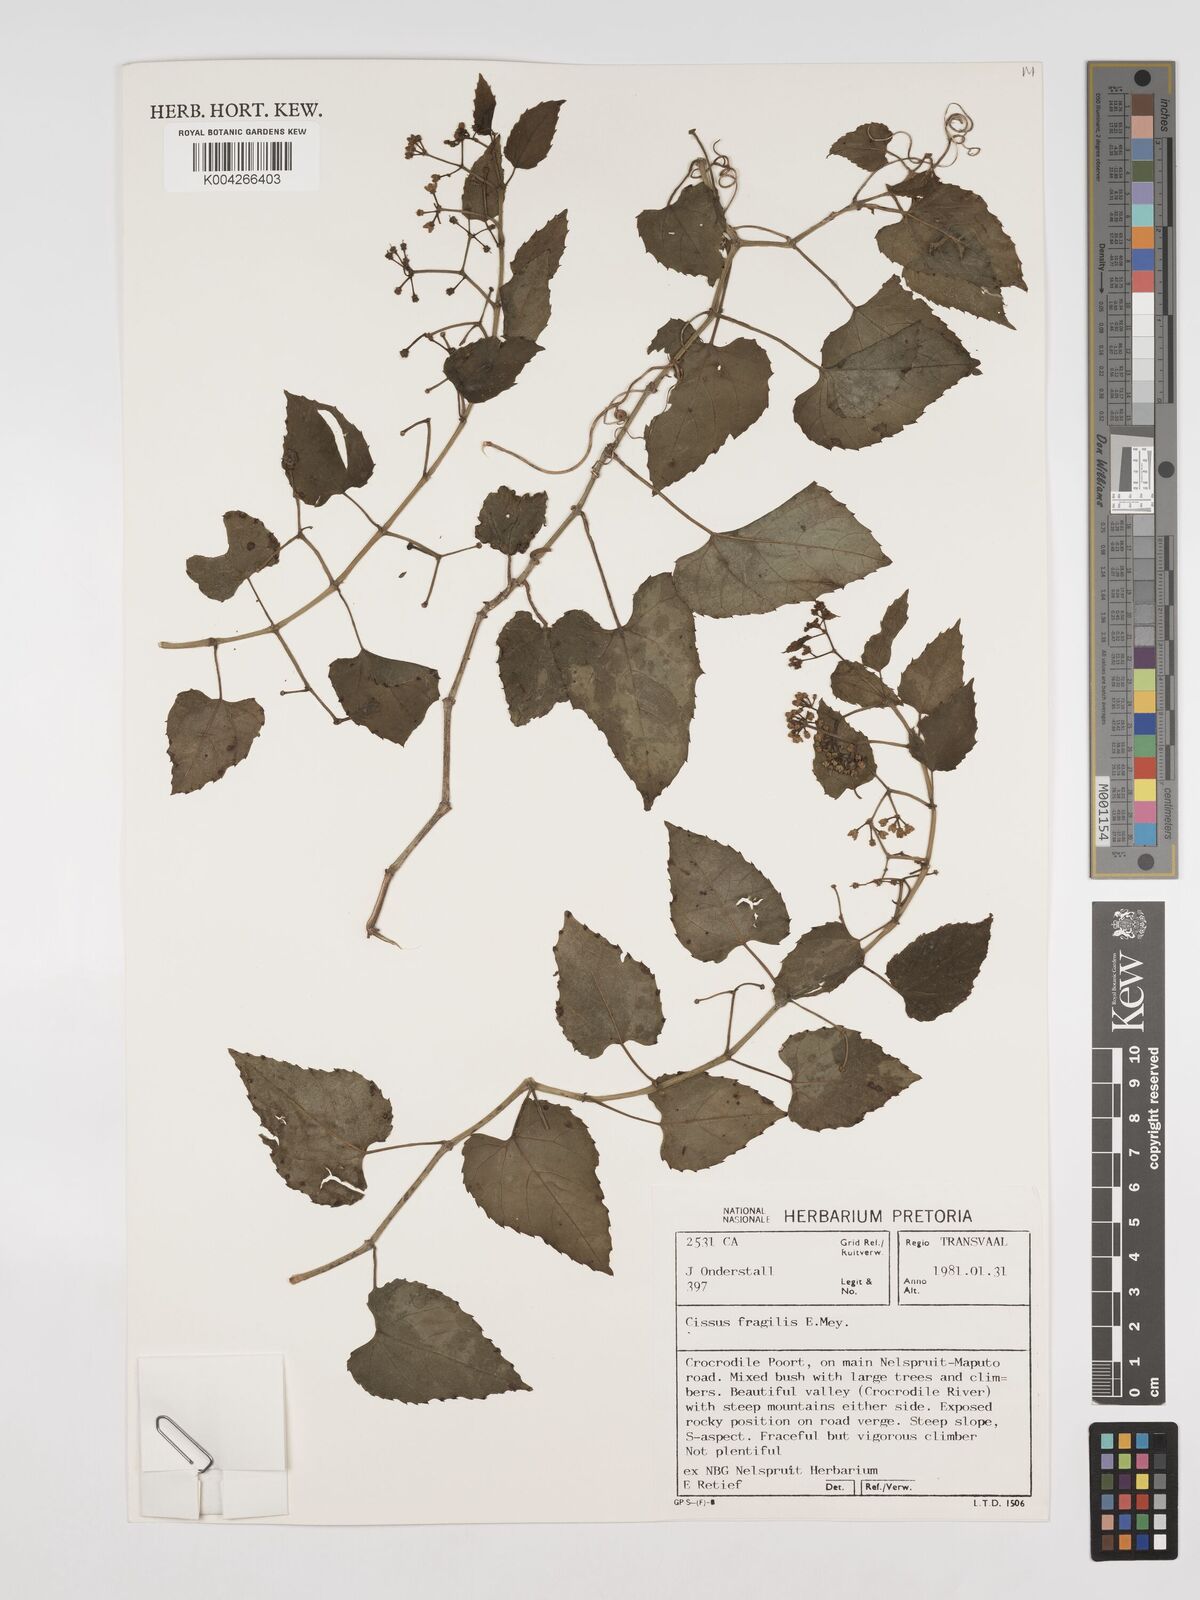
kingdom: Plantae
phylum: Tracheophyta
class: Magnoliopsida
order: Vitales
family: Vitaceae
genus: Cissus
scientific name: Cissus fragilis
